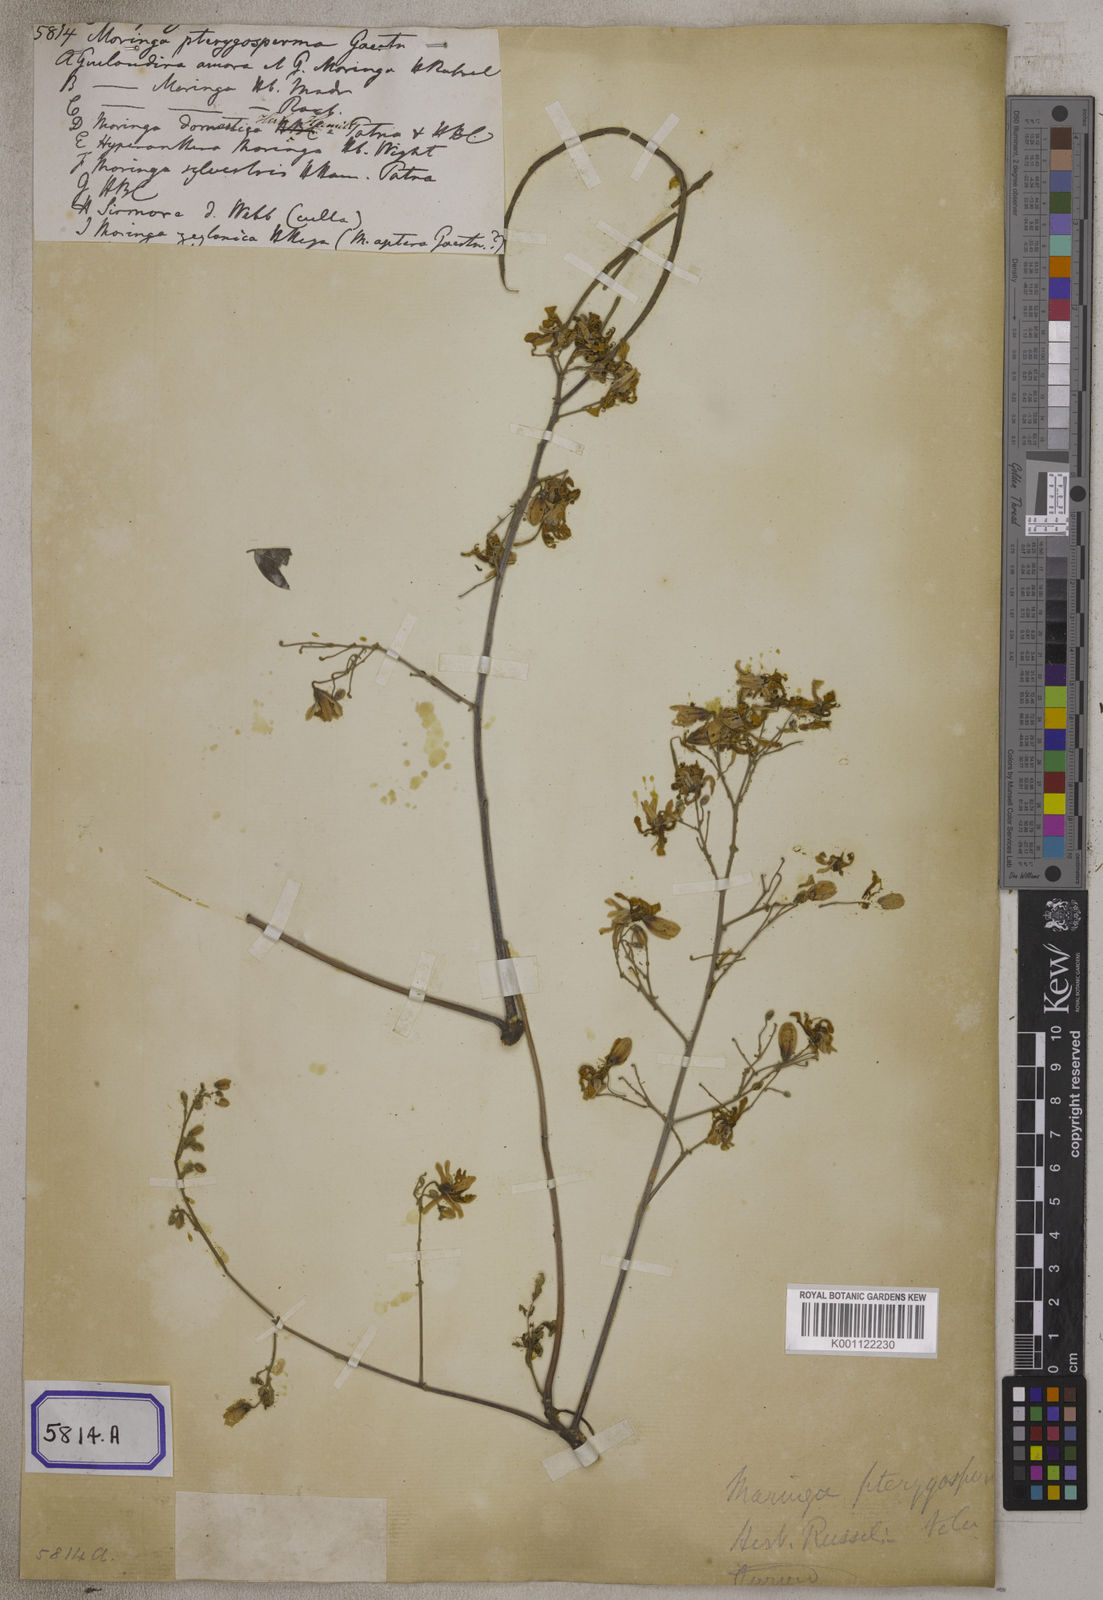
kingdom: Plantae
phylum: Tracheophyta
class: Magnoliopsida
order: Brassicales
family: Moringaceae
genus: Moringa
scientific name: Moringa oleifera
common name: Horseradish-tree
